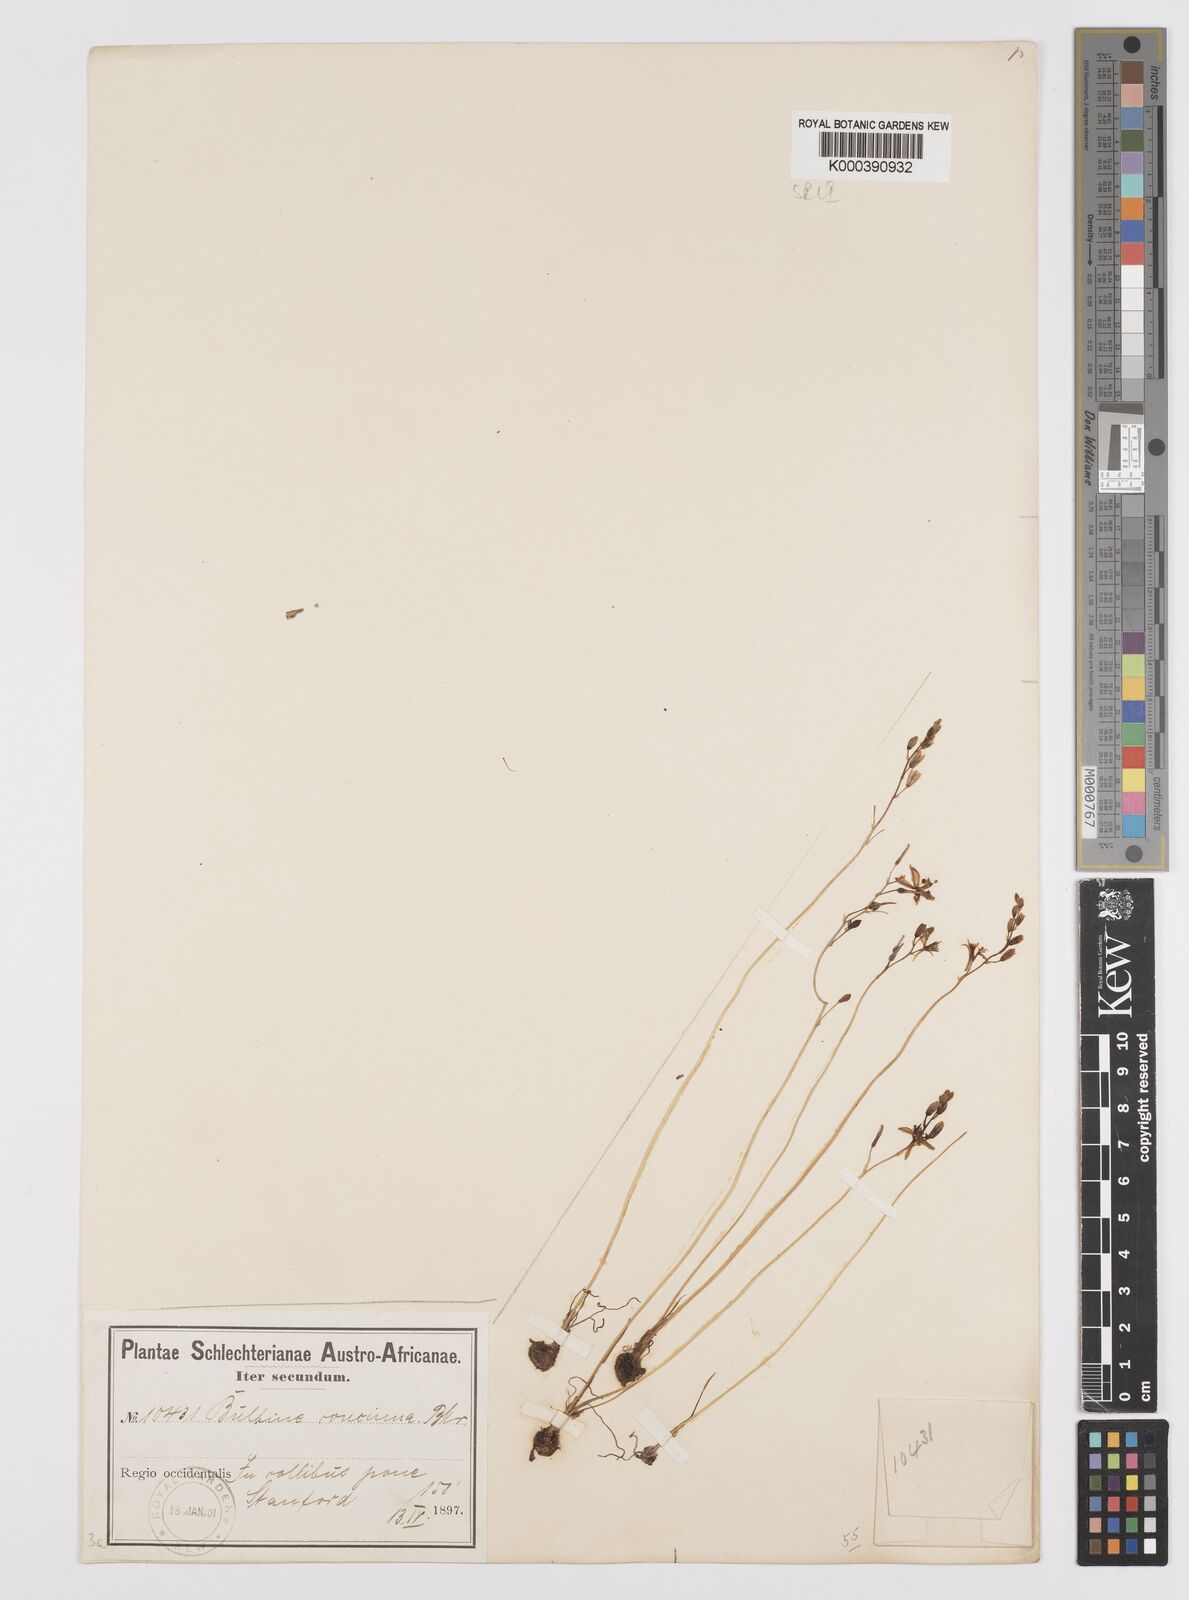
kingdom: Plantae
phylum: Tracheophyta
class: Liliopsida
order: Asparagales
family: Asphodelaceae
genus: Bulbine
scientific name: Bulbine favosa
